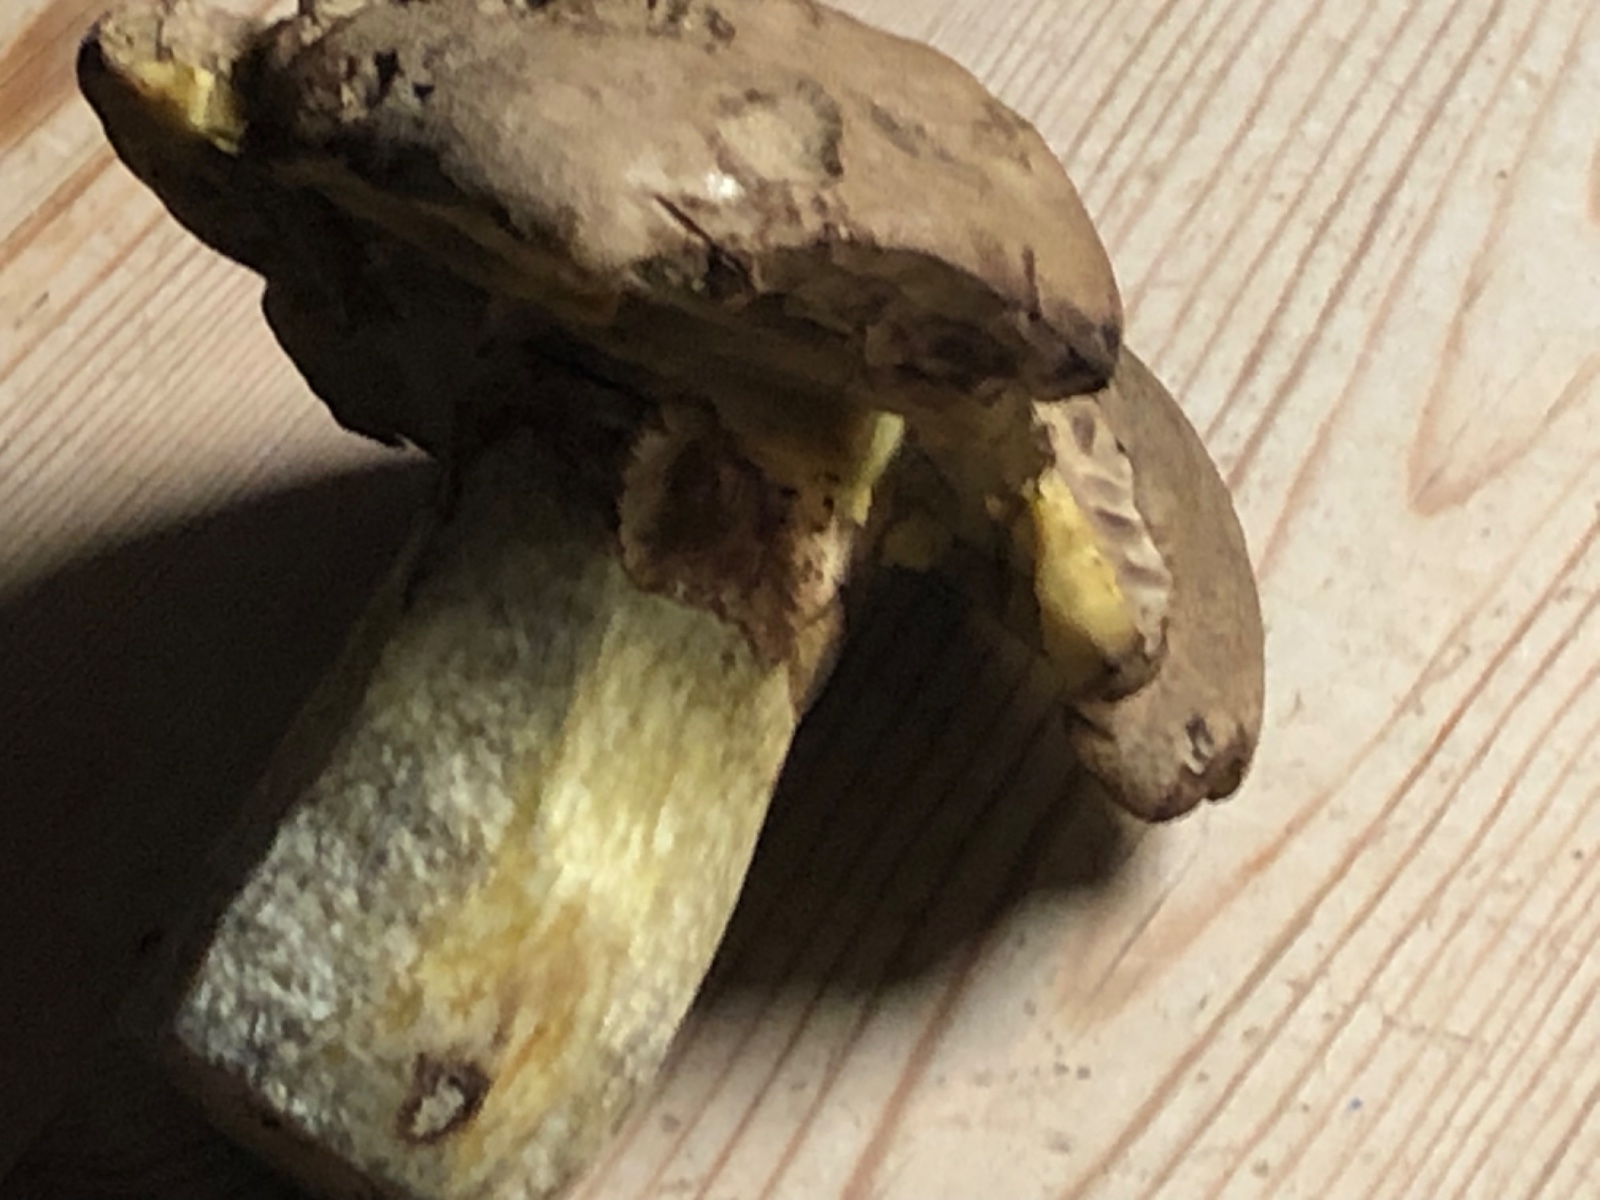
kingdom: Fungi
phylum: Basidiomycota
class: Agaricomycetes
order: Boletales
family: Boletaceae
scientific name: Boletaceae
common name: rørhatfamilien
